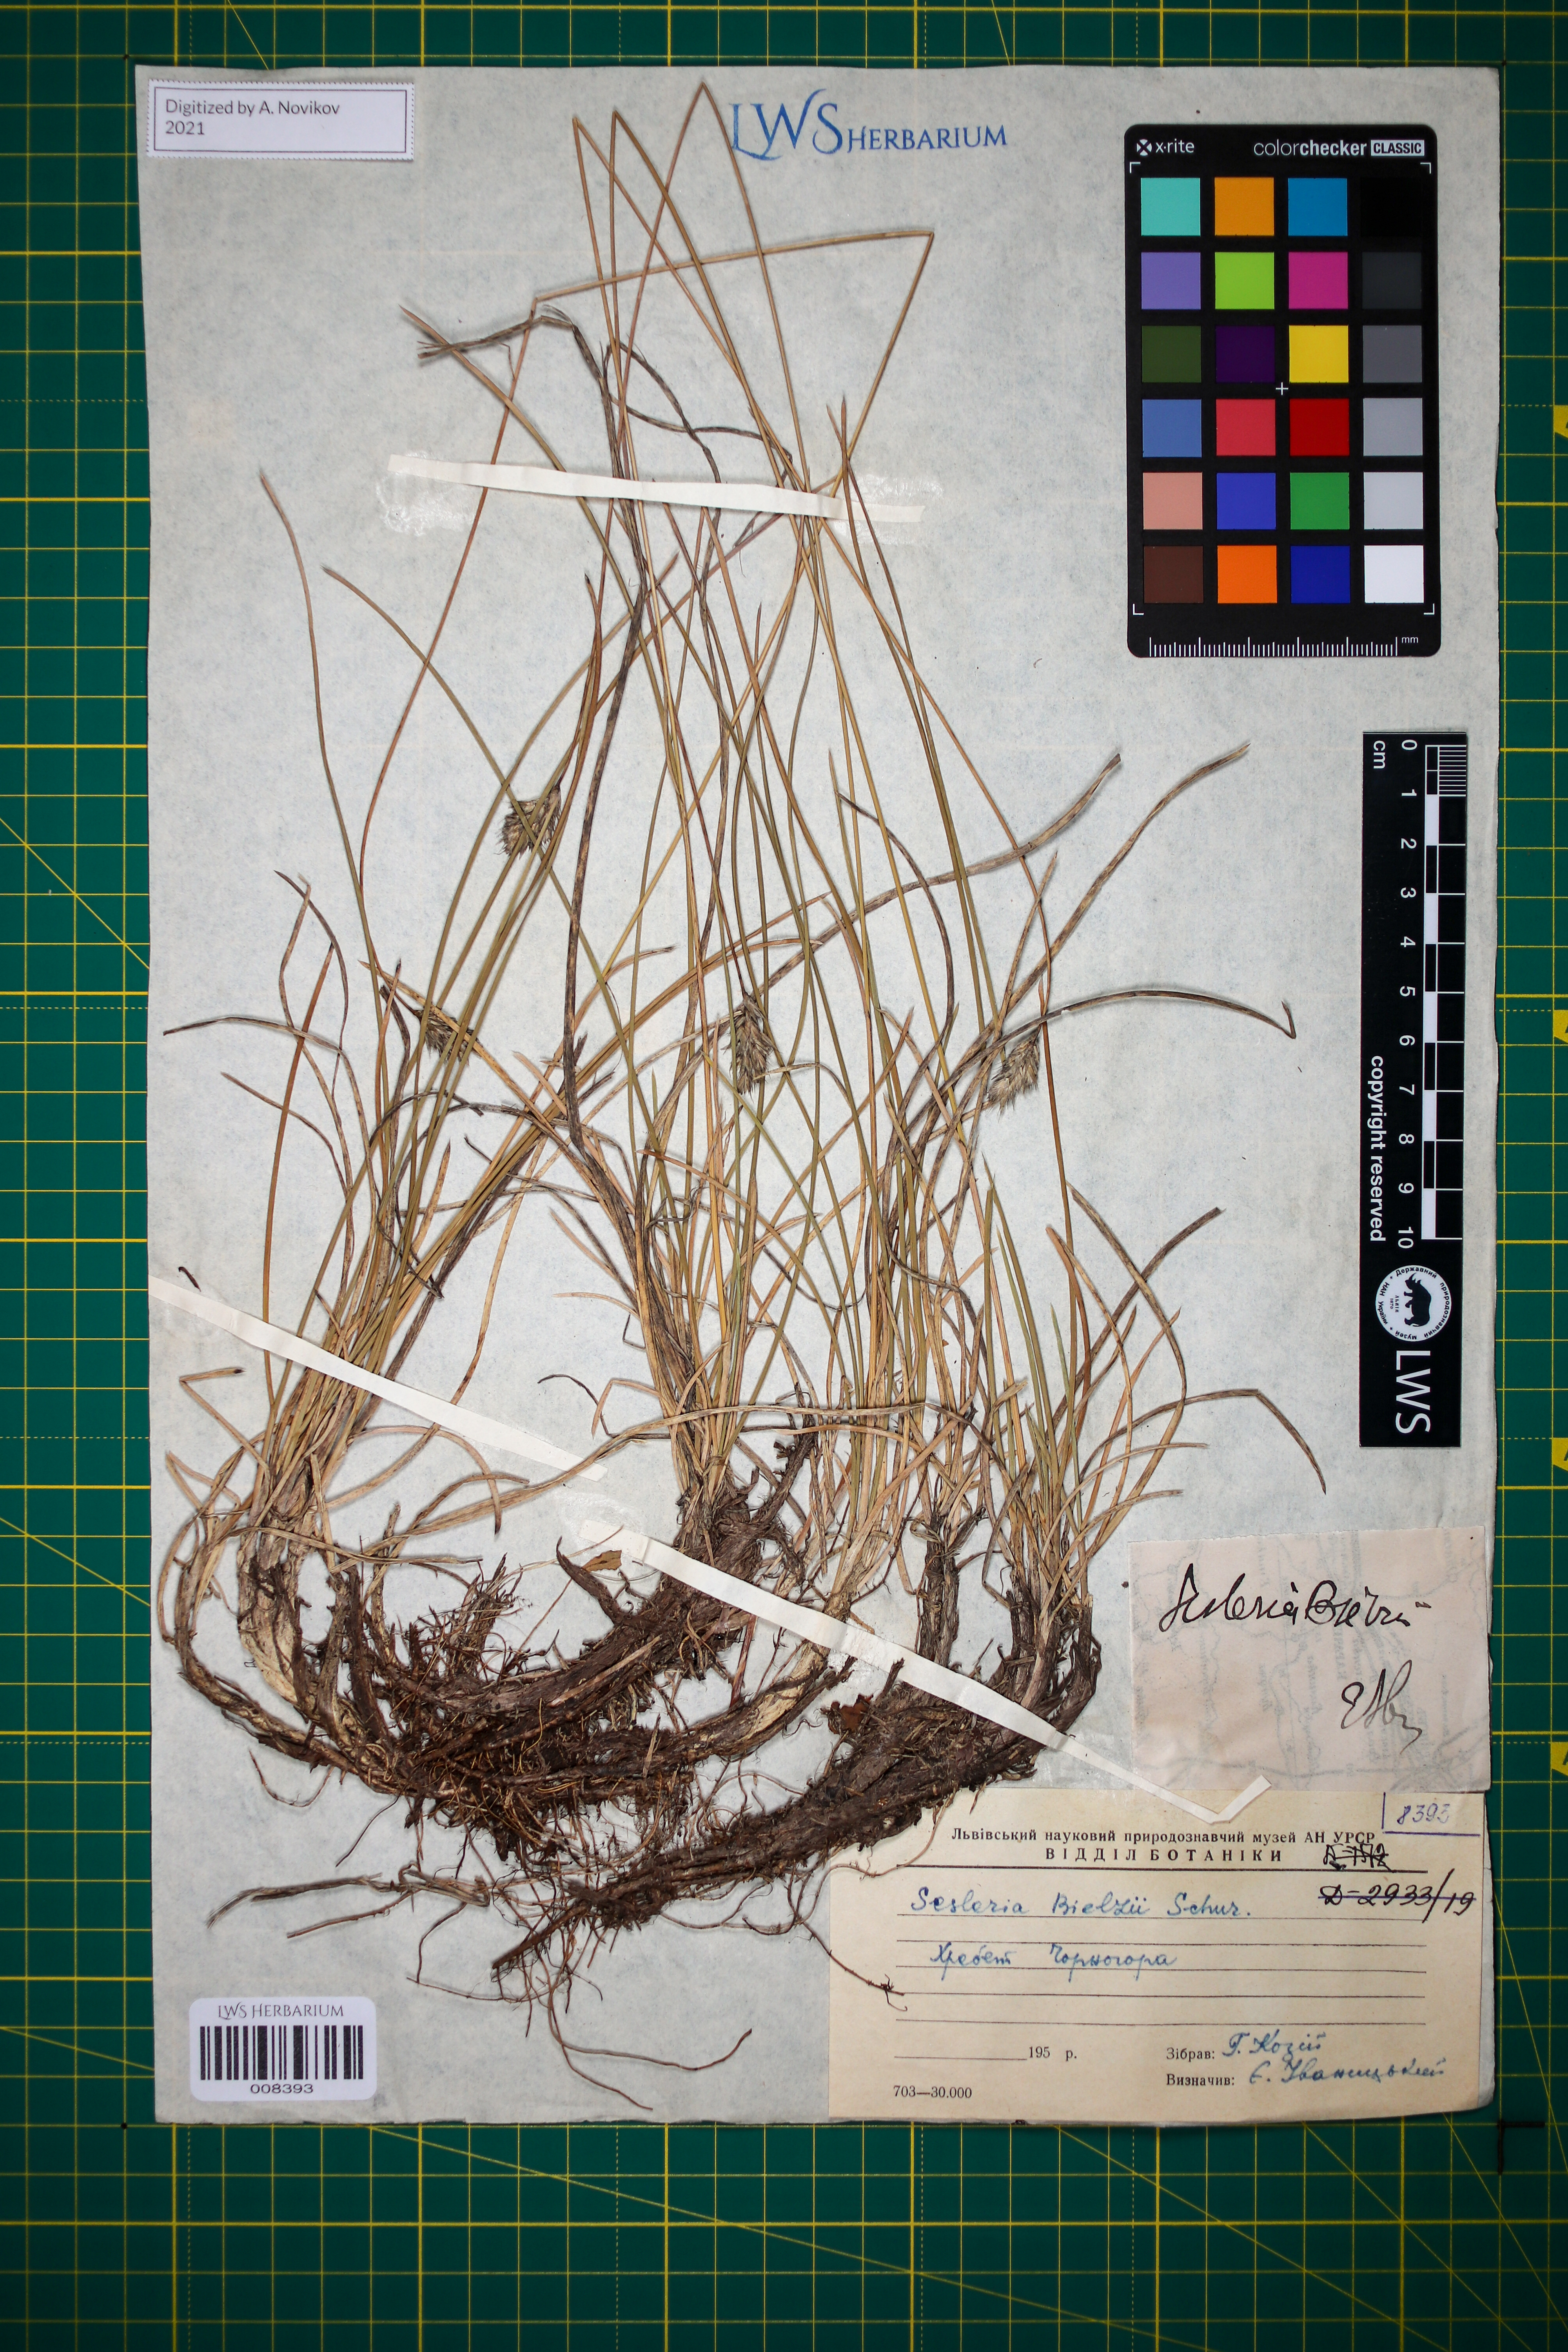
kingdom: Plantae
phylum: Tracheophyta
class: Liliopsida
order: Poales
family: Poaceae
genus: Sesleria
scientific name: Sesleria bielzii
